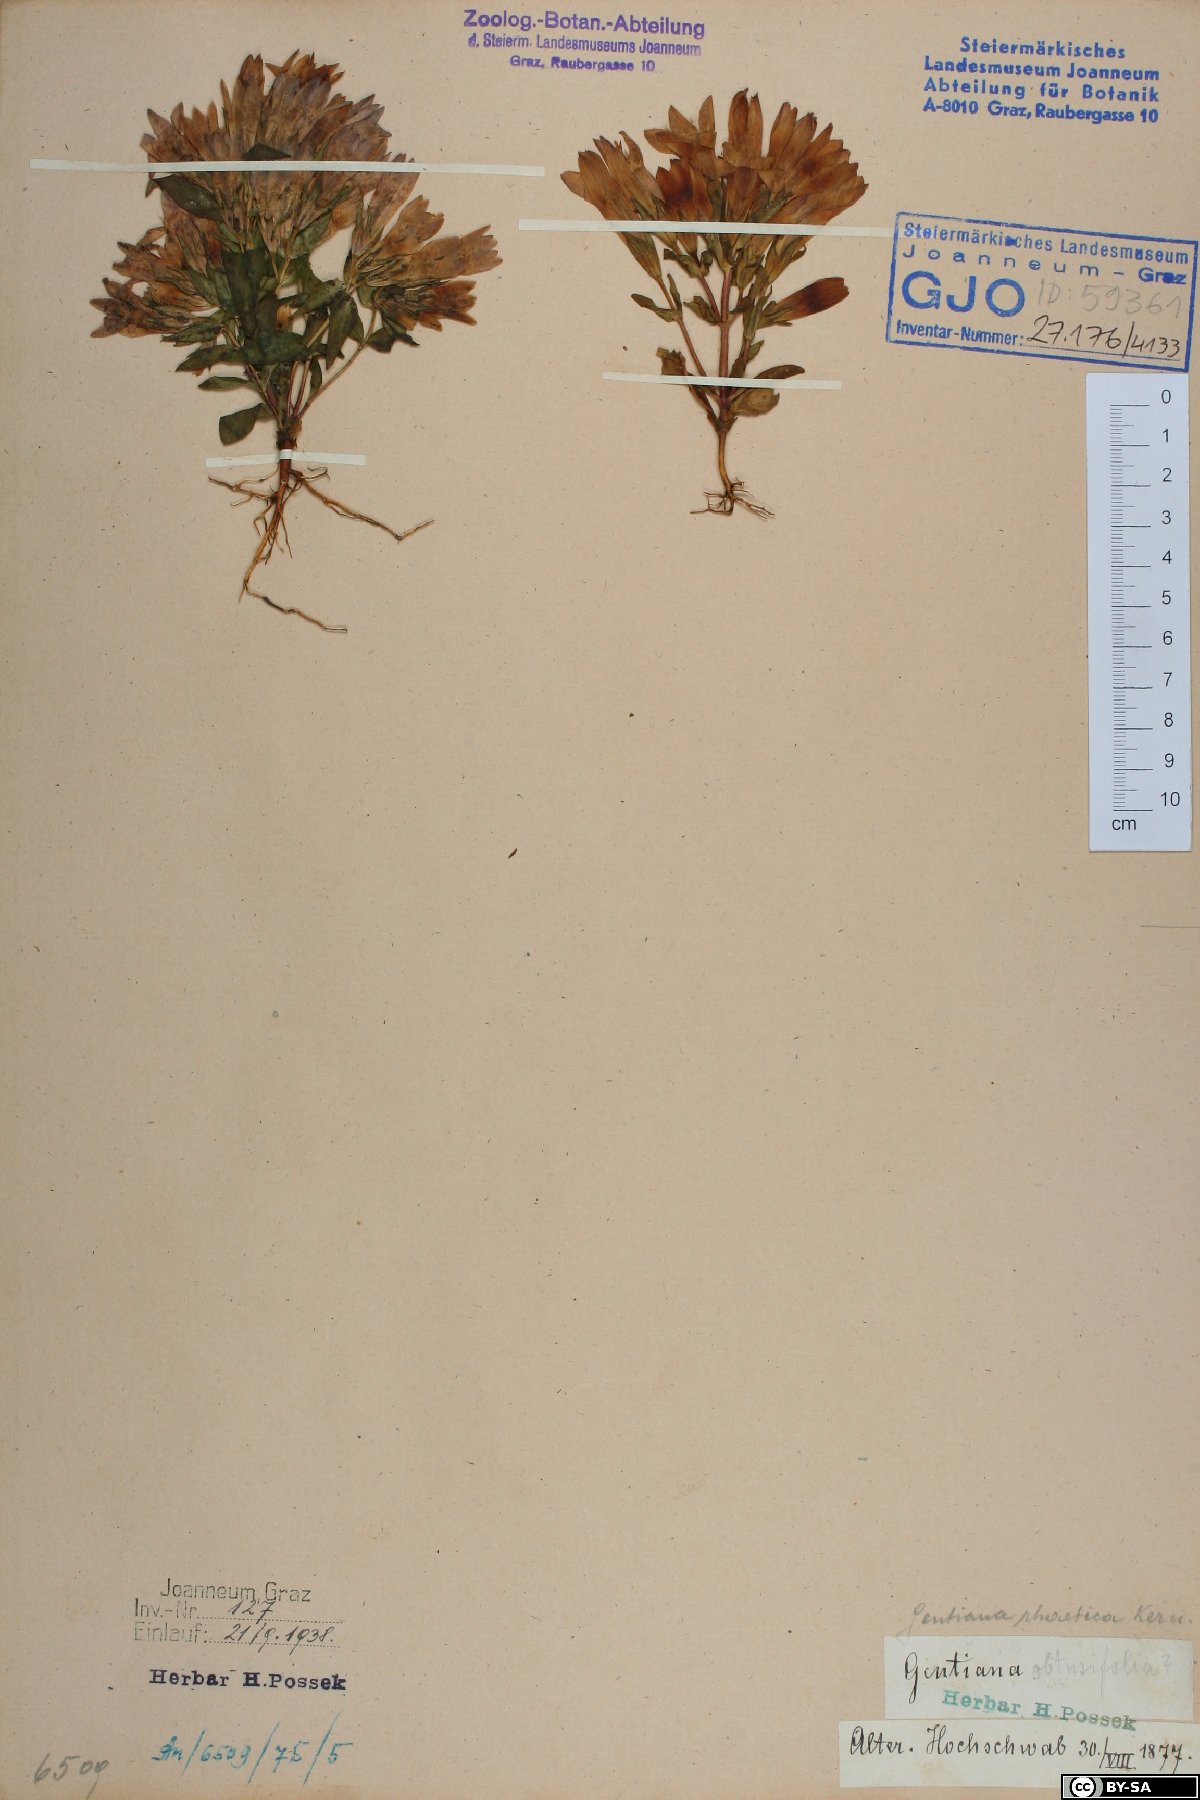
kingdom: Plantae
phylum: Tracheophyta
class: Magnoliopsida
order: Gentianales
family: Gentianaceae
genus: Gentianella
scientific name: Gentianella rhaetica
